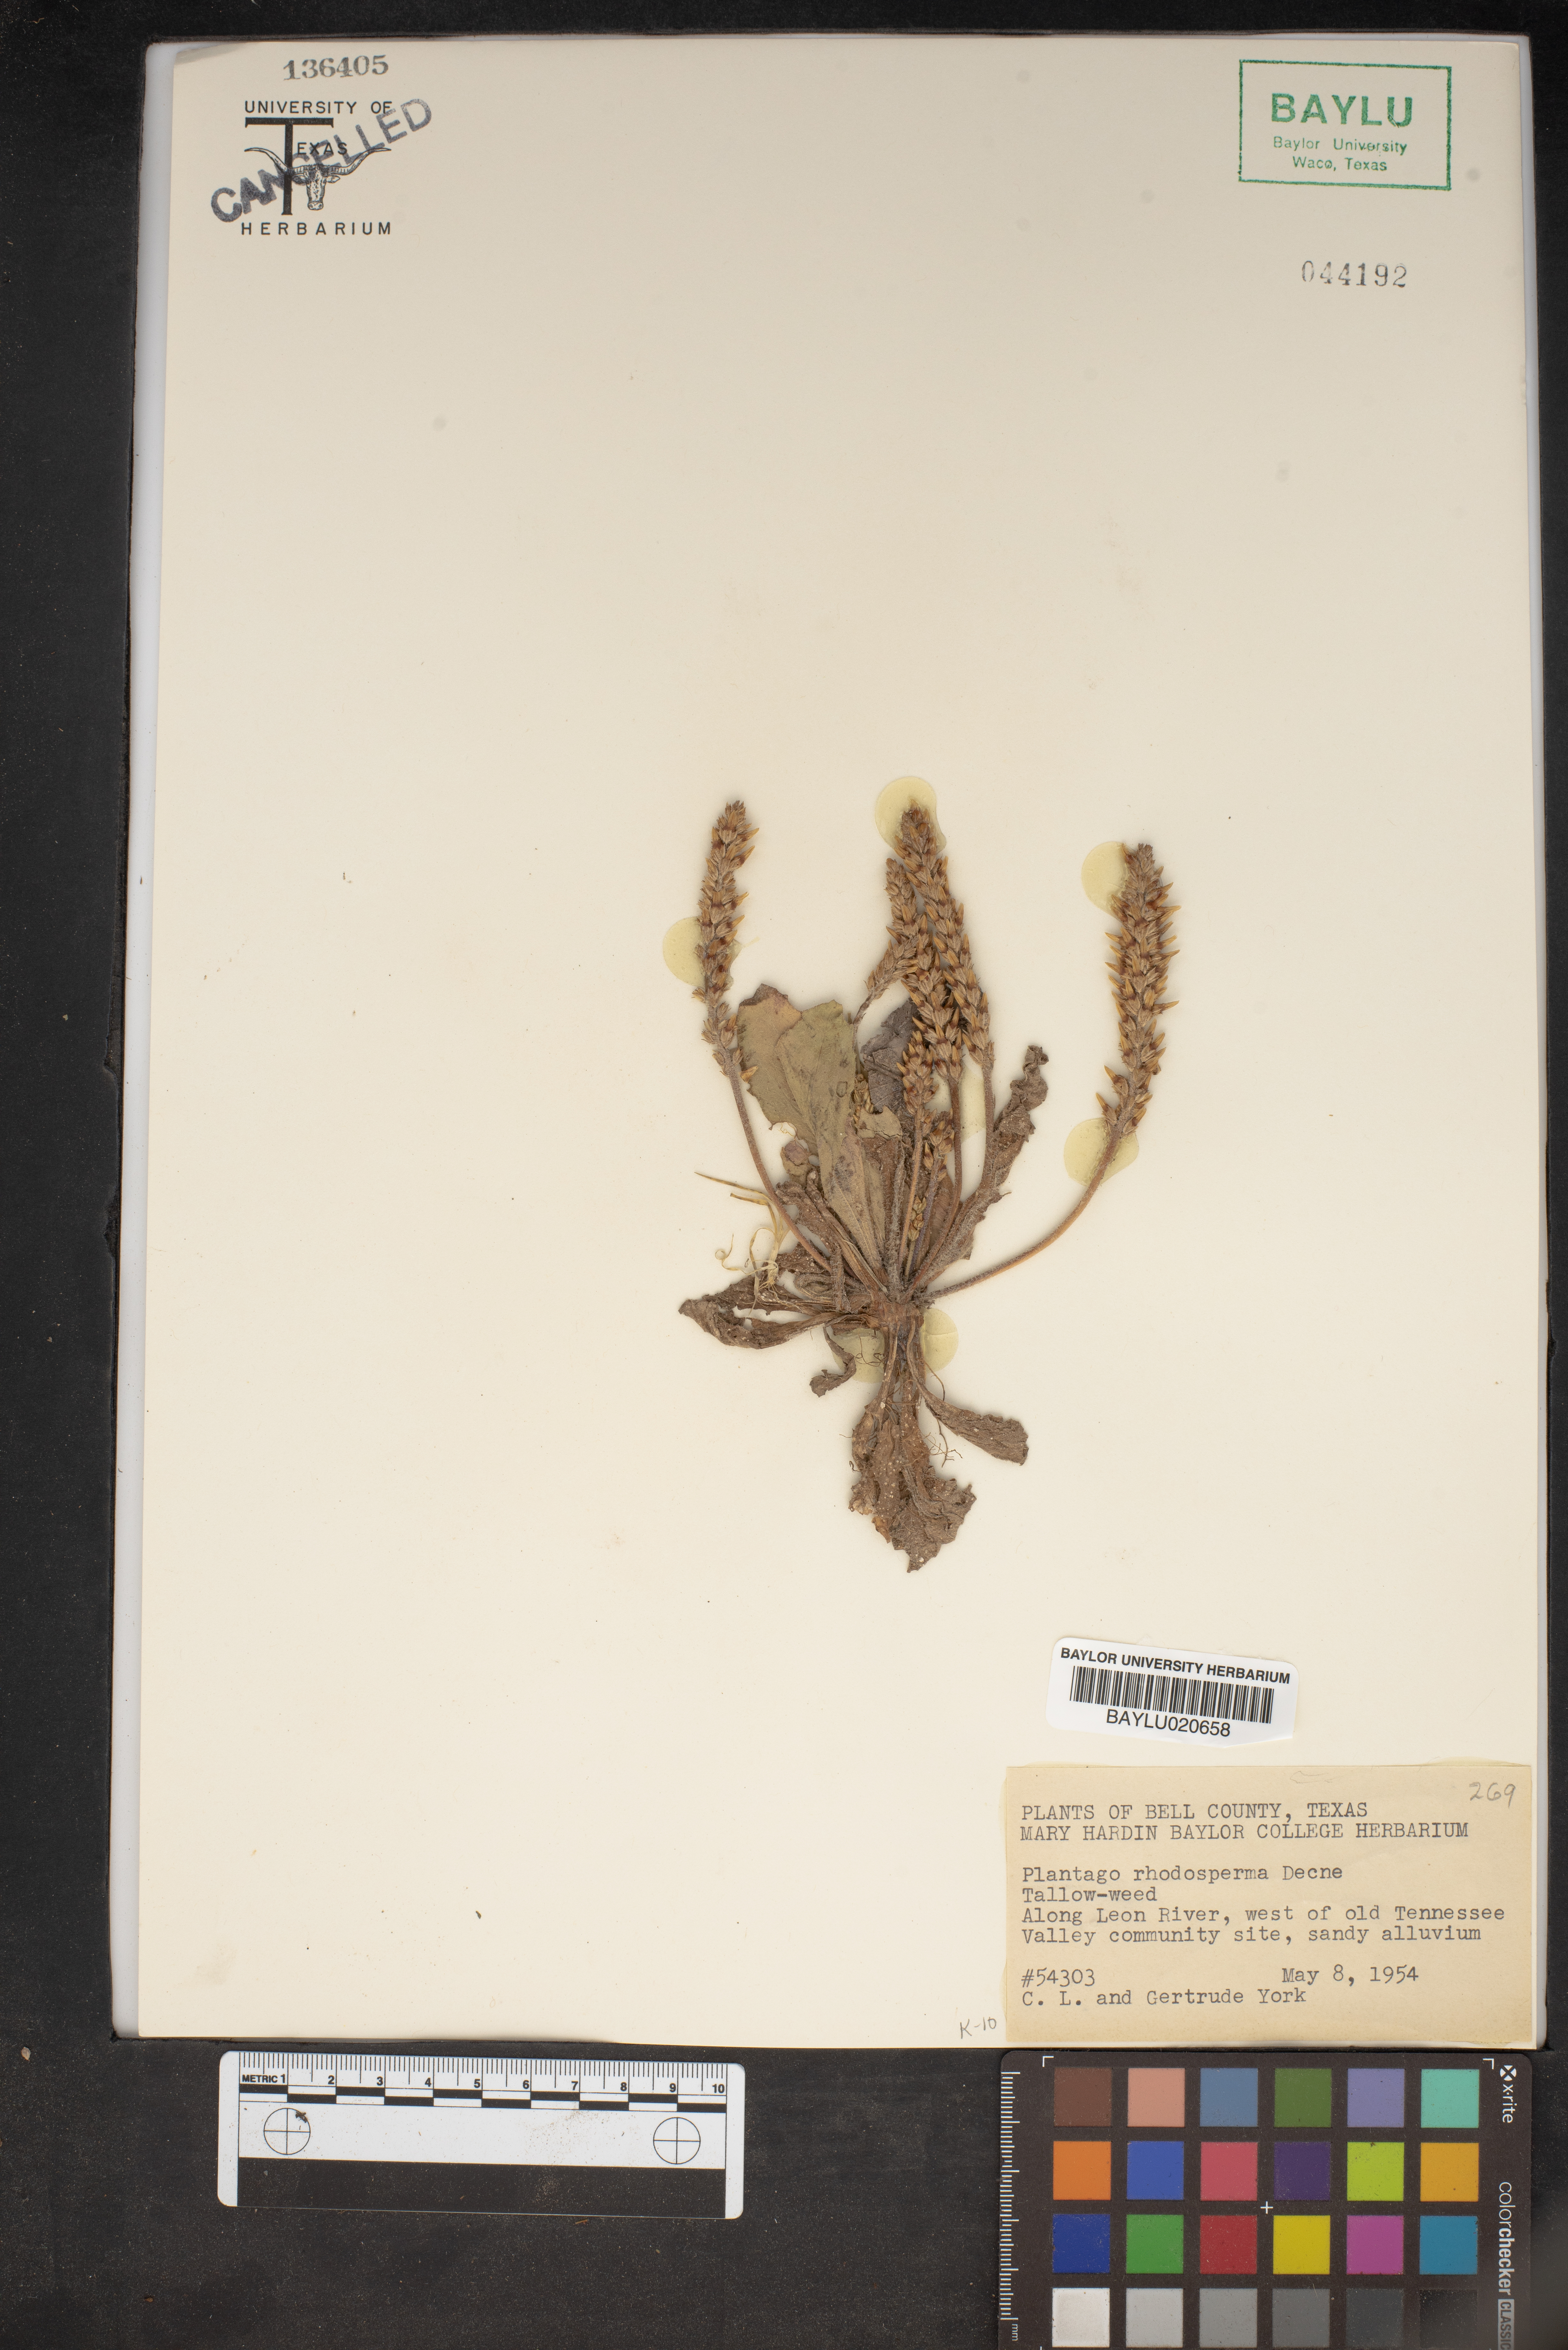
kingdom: Plantae
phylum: Tracheophyta
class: Magnoliopsida
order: Lamiales
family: Plantaginaceae
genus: Plantago
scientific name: Plantago rhodosperma
